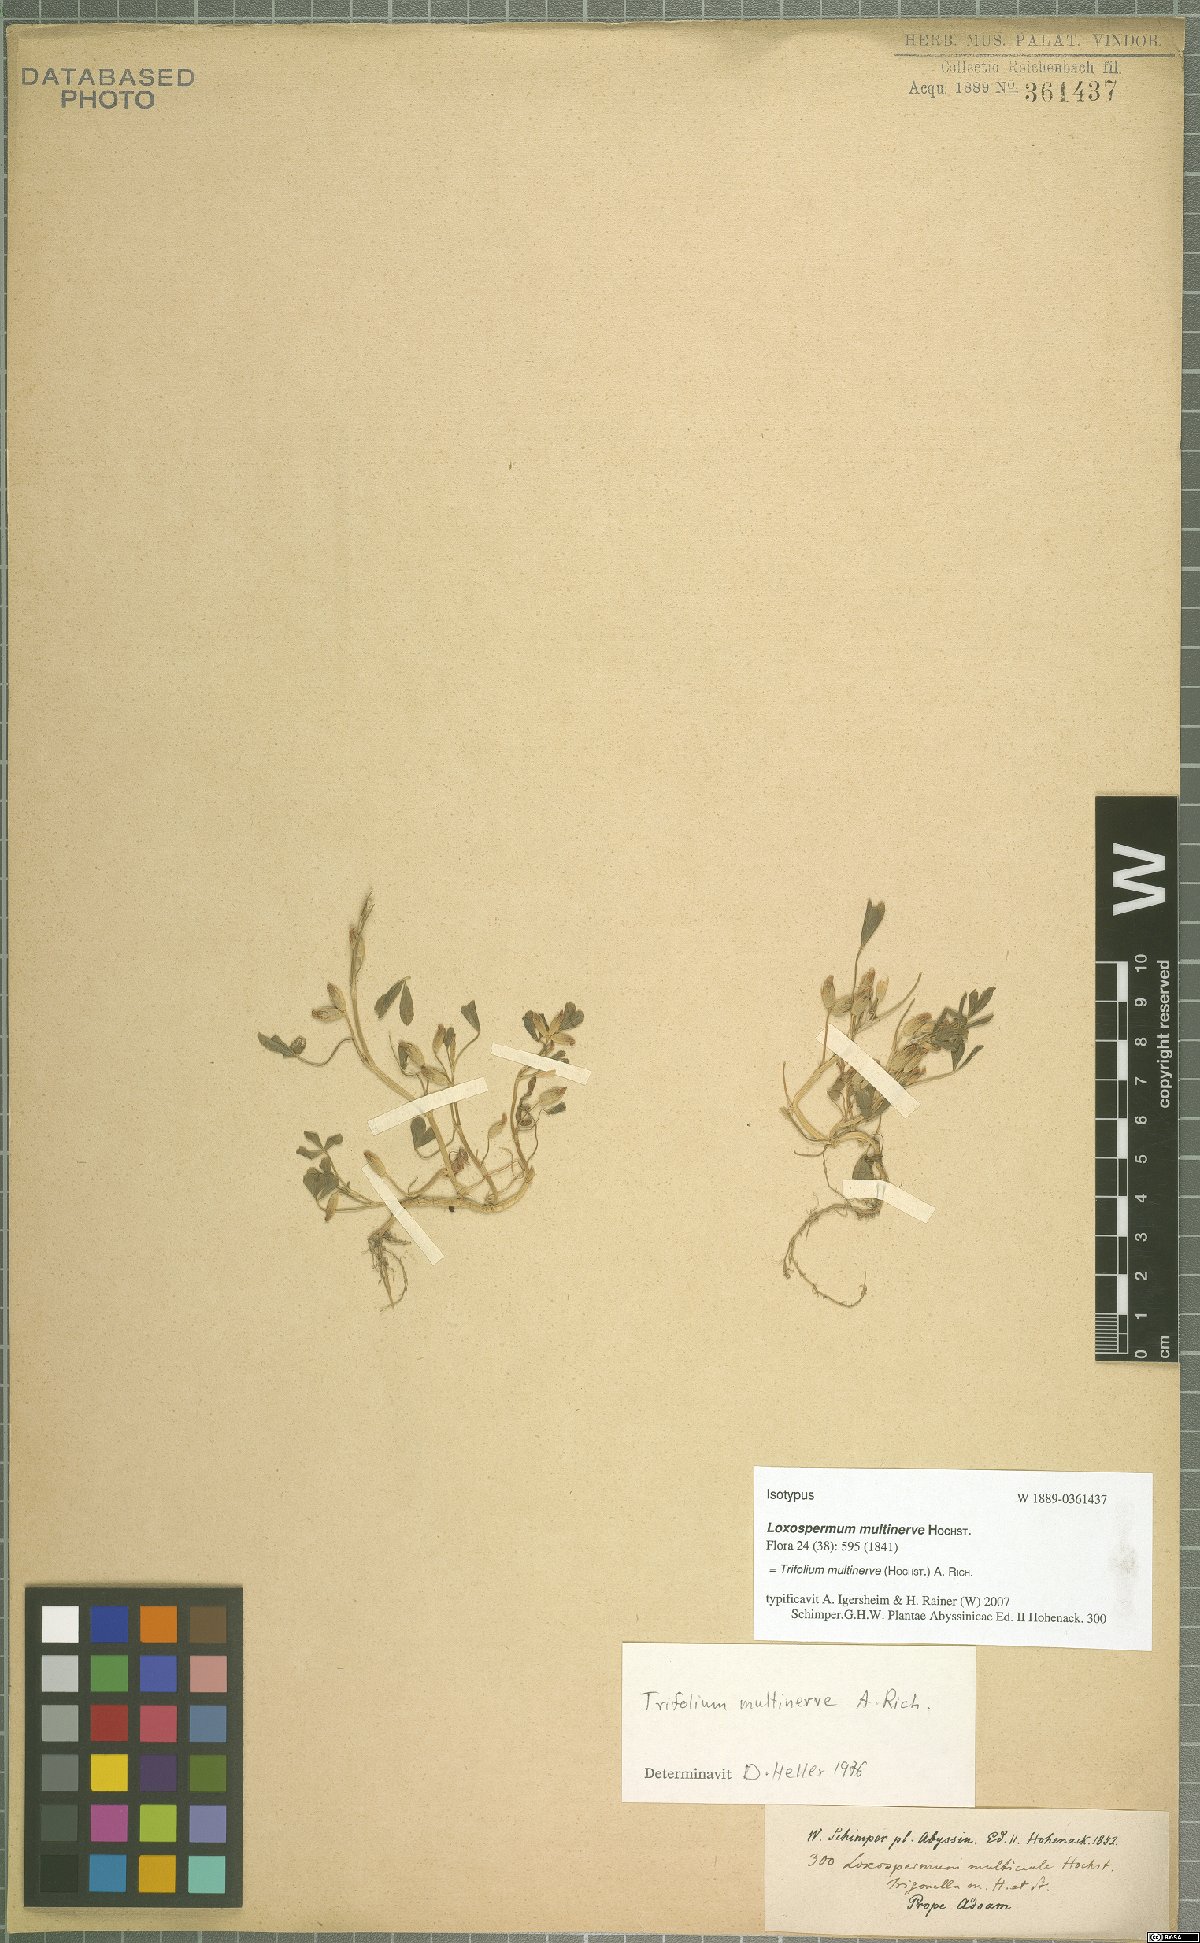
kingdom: Plantae
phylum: Tracheophyta
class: Magnoliopsida
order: Fabales
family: Fabaceae
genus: Trifolium
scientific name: Trifolium multinerve
